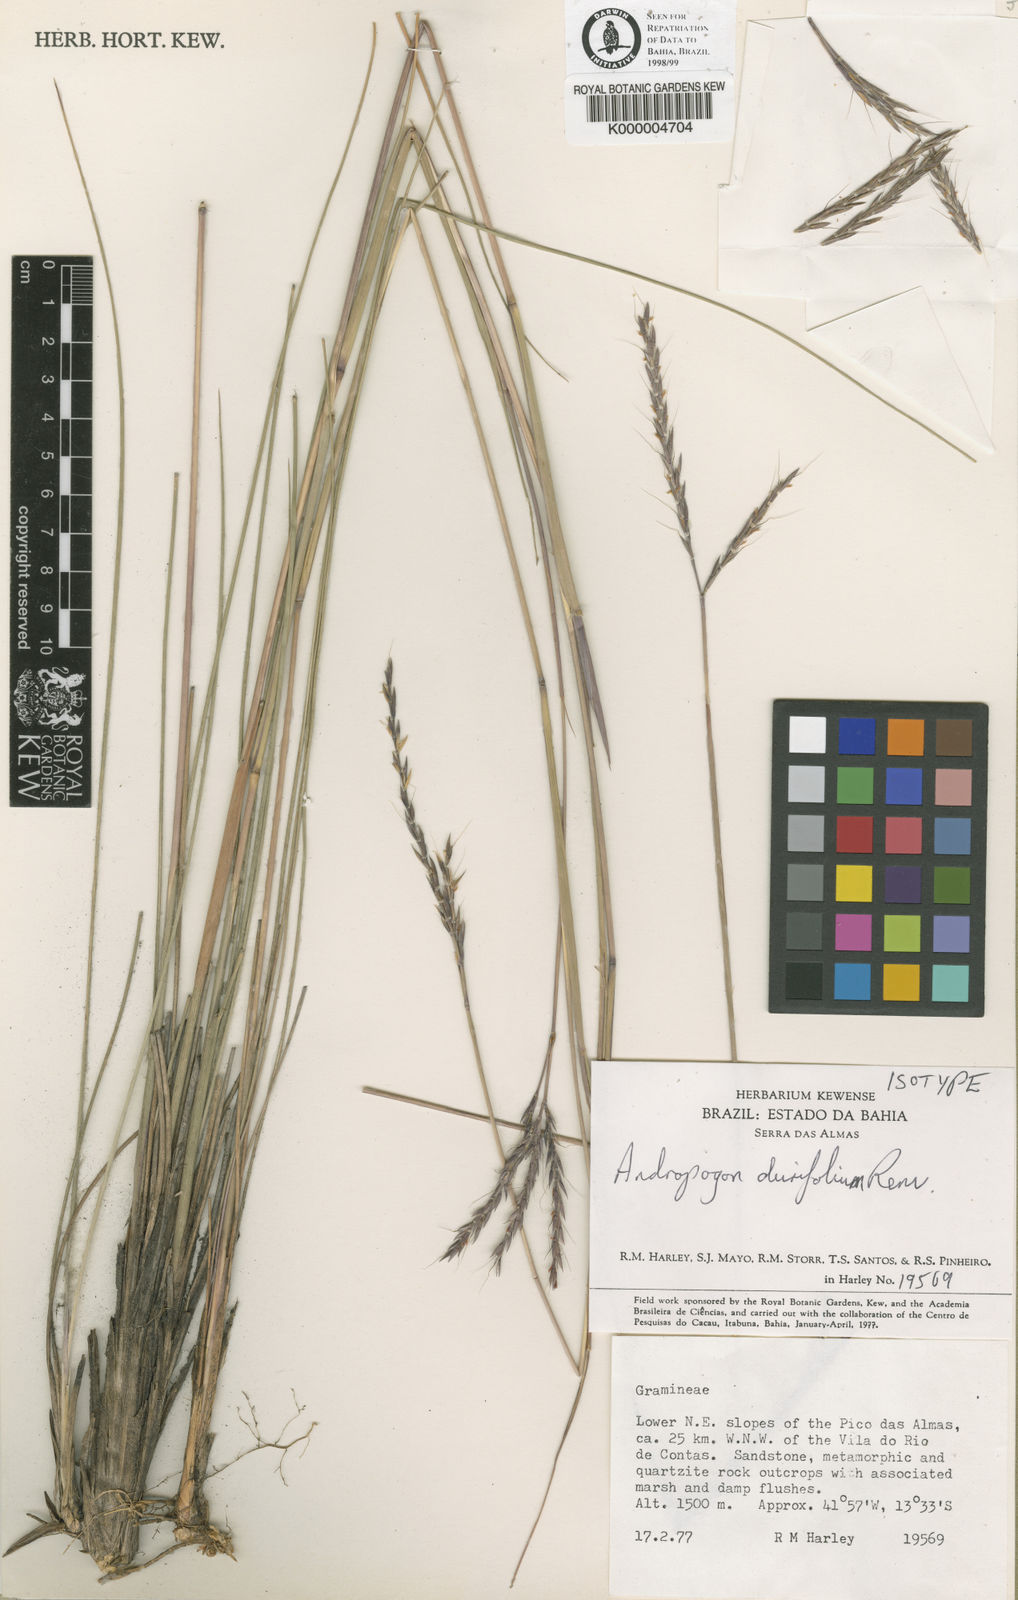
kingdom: Plantae
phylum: Tracheophyta
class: Liliopsida
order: Poales
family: Poaceae
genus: Andropogon
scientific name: Andropogon durifolius
